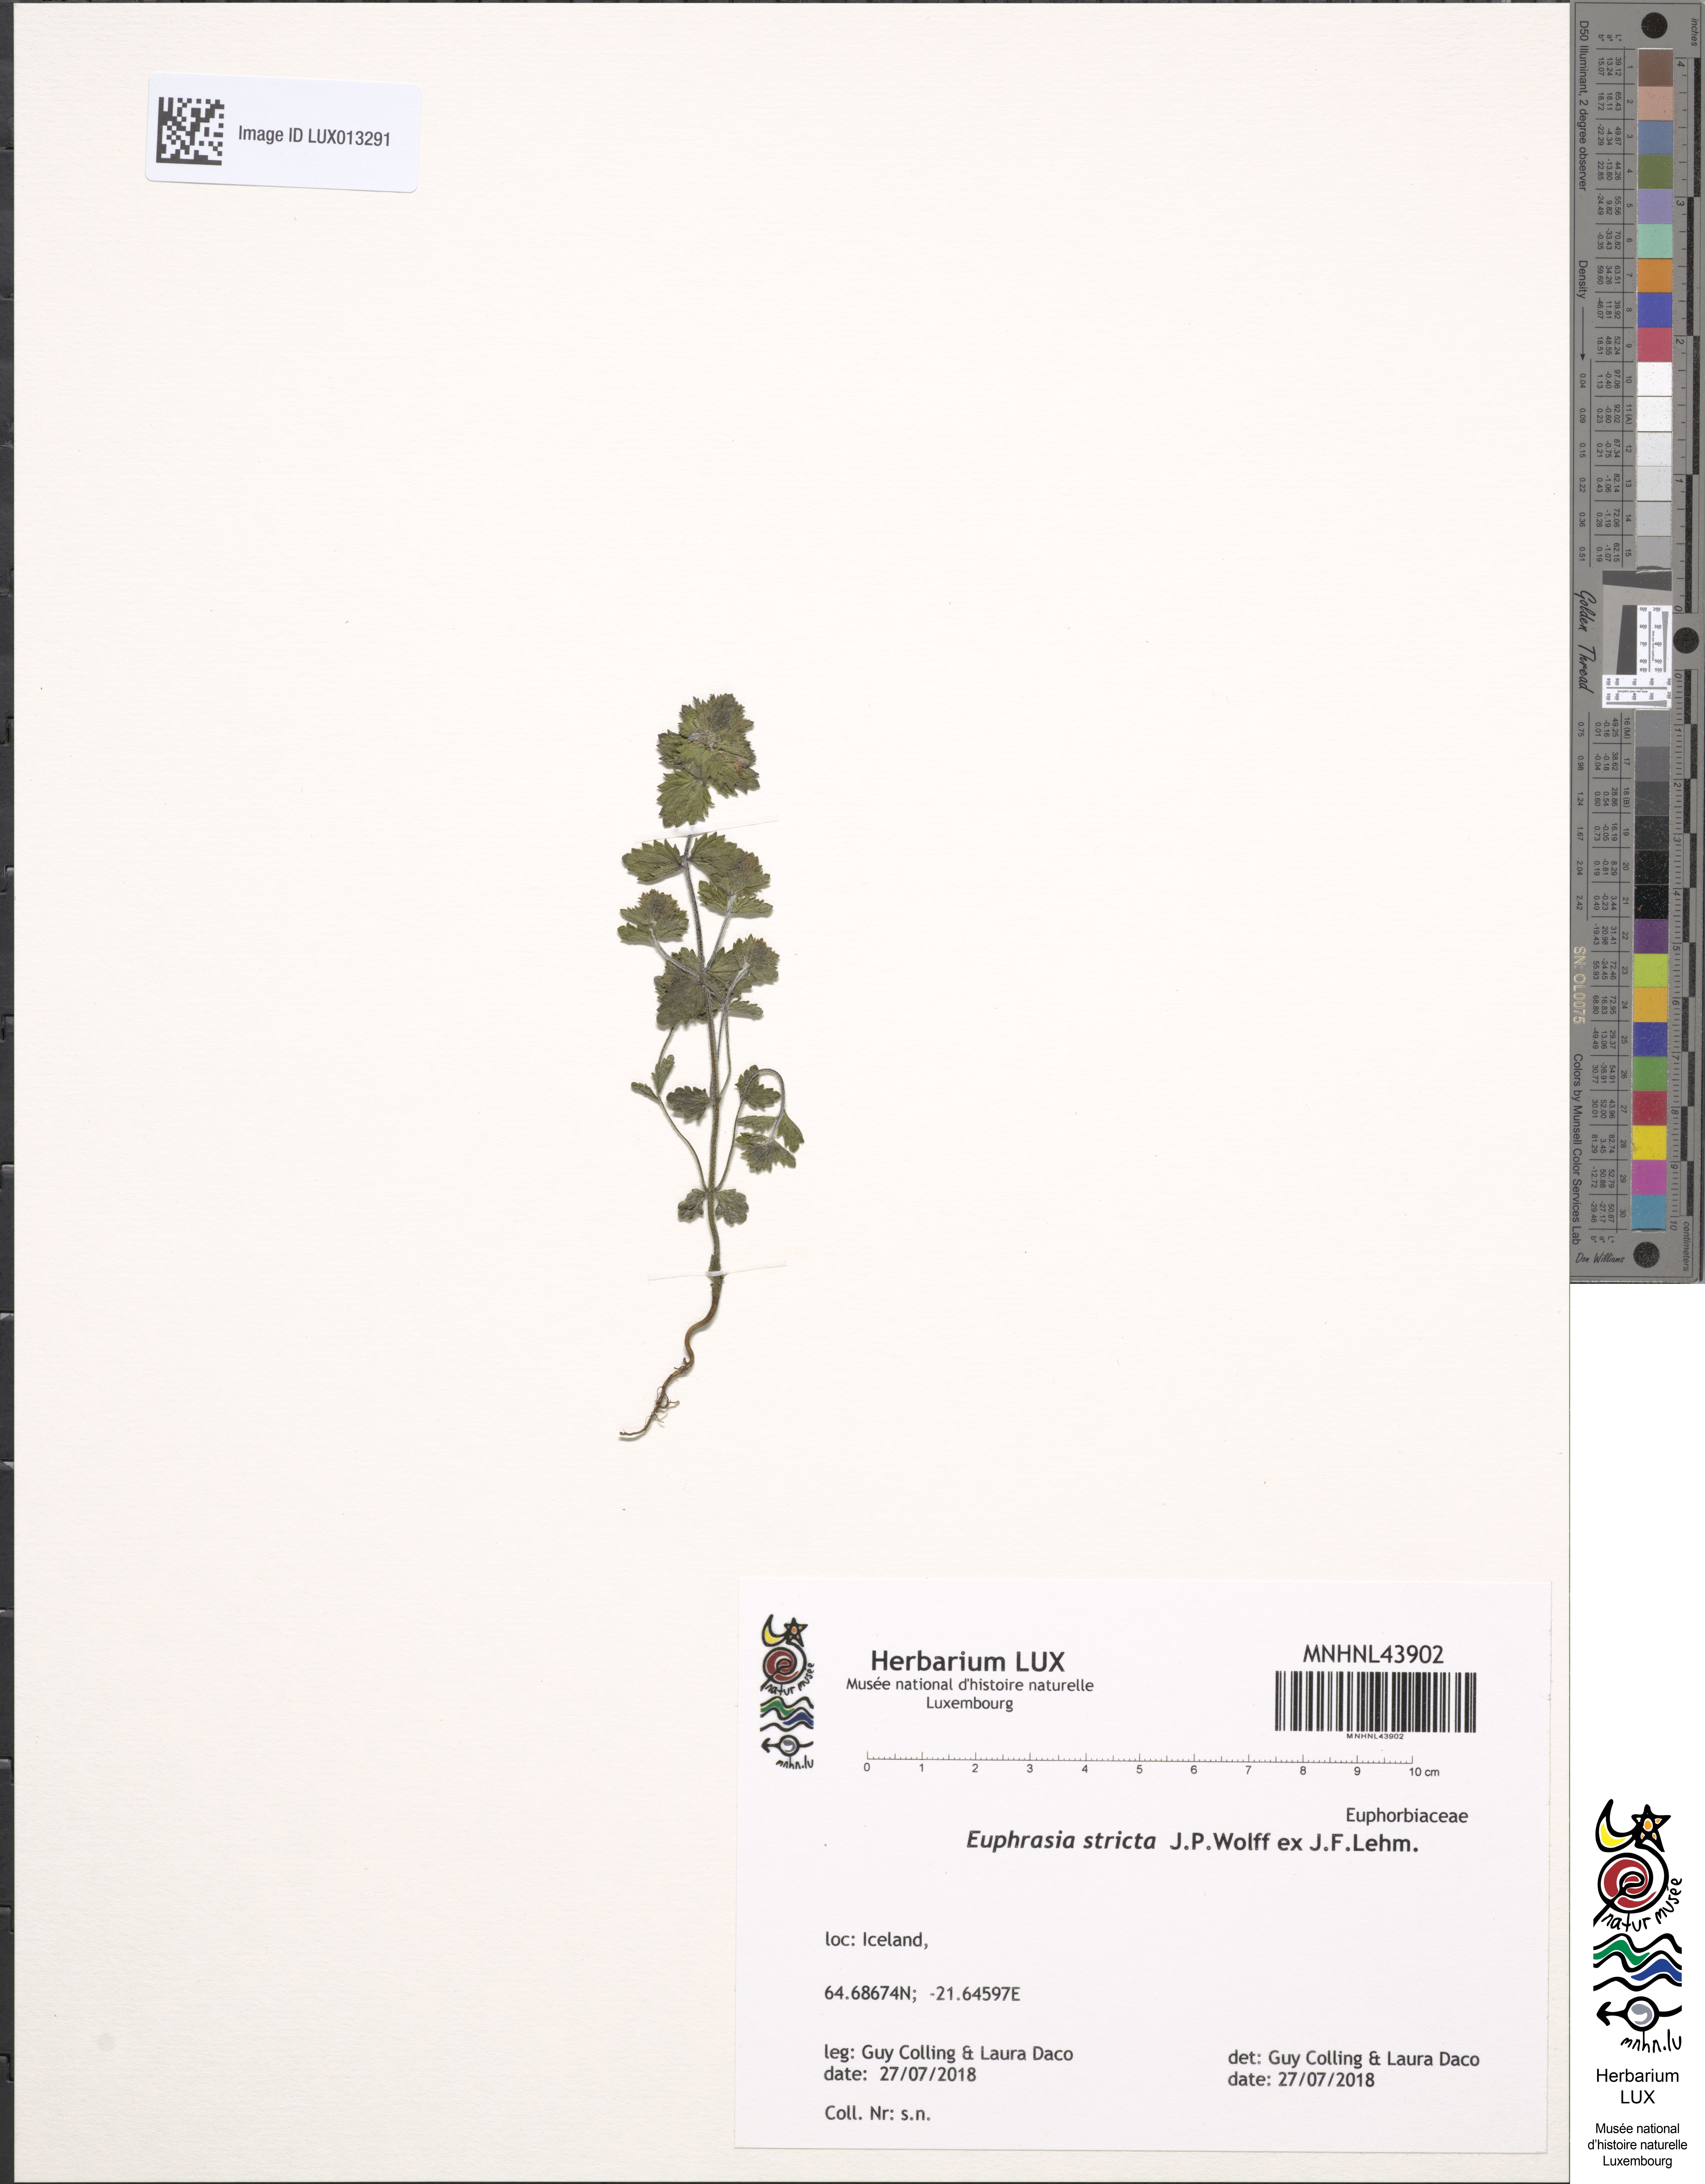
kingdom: Plantae
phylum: Tracheophyta
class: Magnoliopsida
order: Lamiales
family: Orobanchaceae
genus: Euphrasia
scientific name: Euphrasia stricta
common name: Drug eyebright
